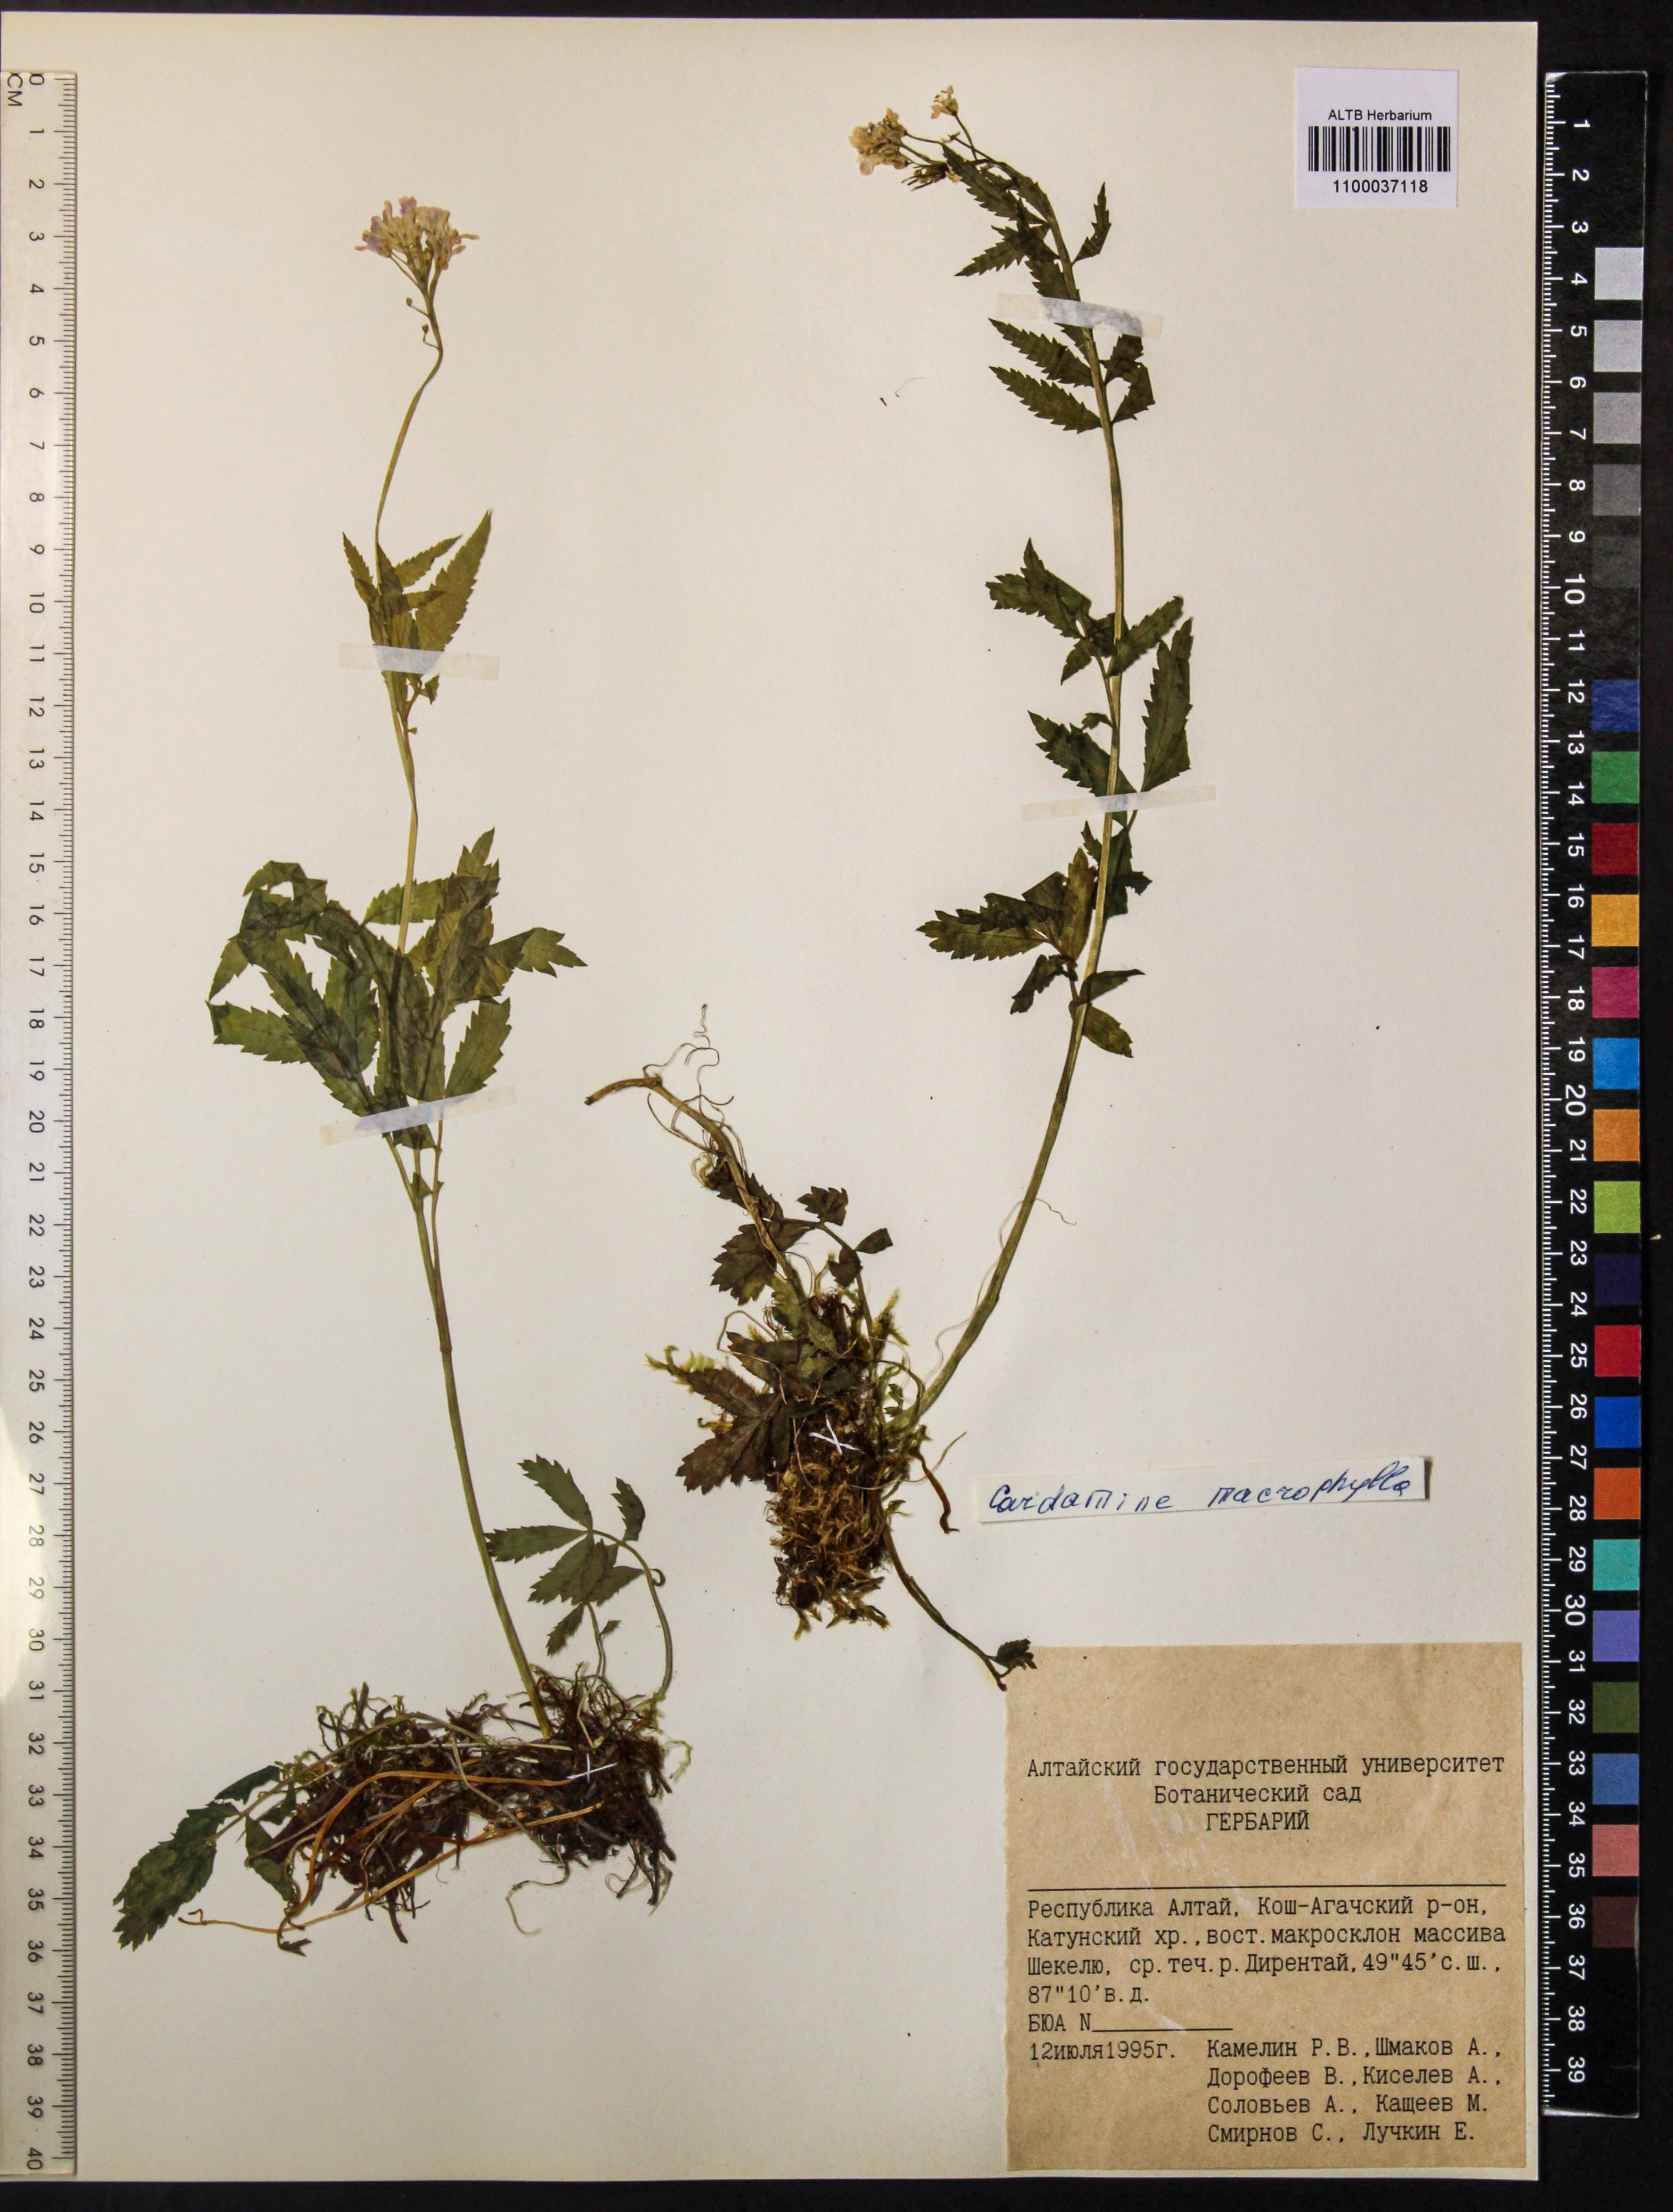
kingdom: Plantae
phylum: Tracheophyta
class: Magnoliopsida
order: Brassicales
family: Brassicaceae
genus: Cardamine
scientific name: Cardamine macrophylla
